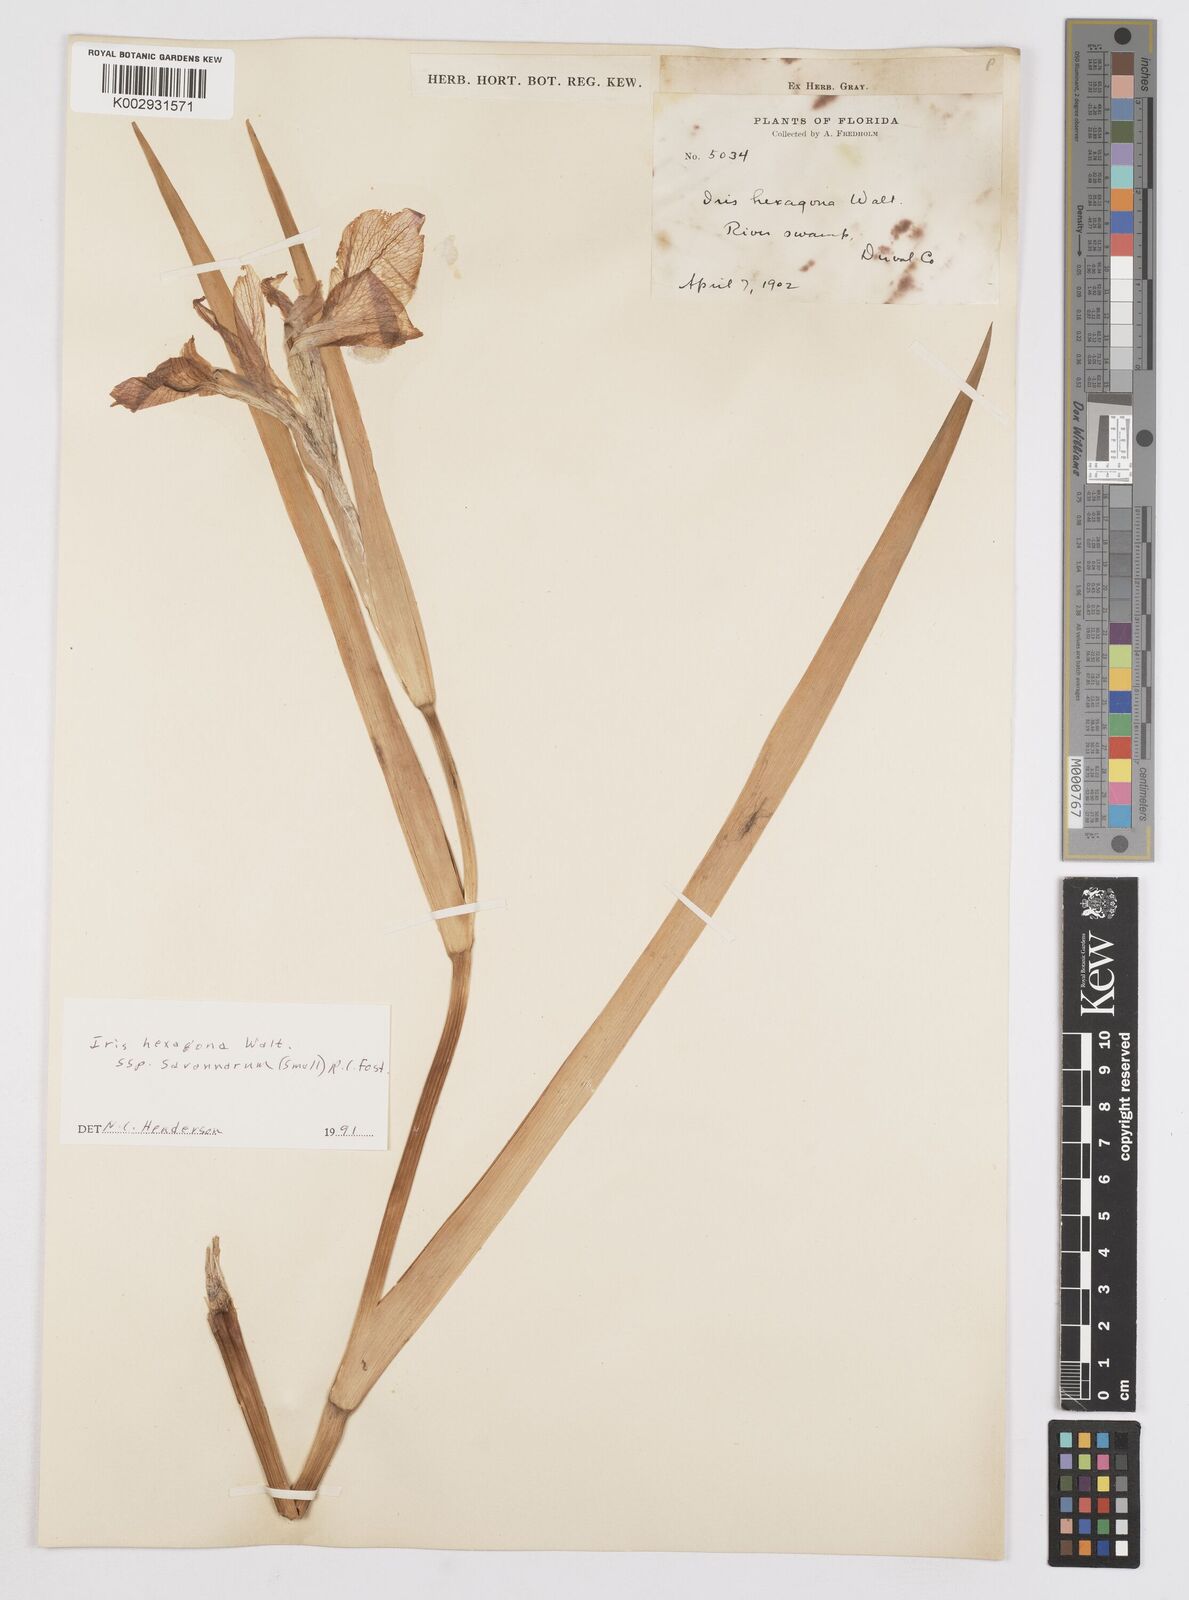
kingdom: Plantae
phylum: Tracheophyta
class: Liliopsida
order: Asparagales
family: Iridaceae
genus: Iris
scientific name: Iris hexagona
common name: Carolina iris
